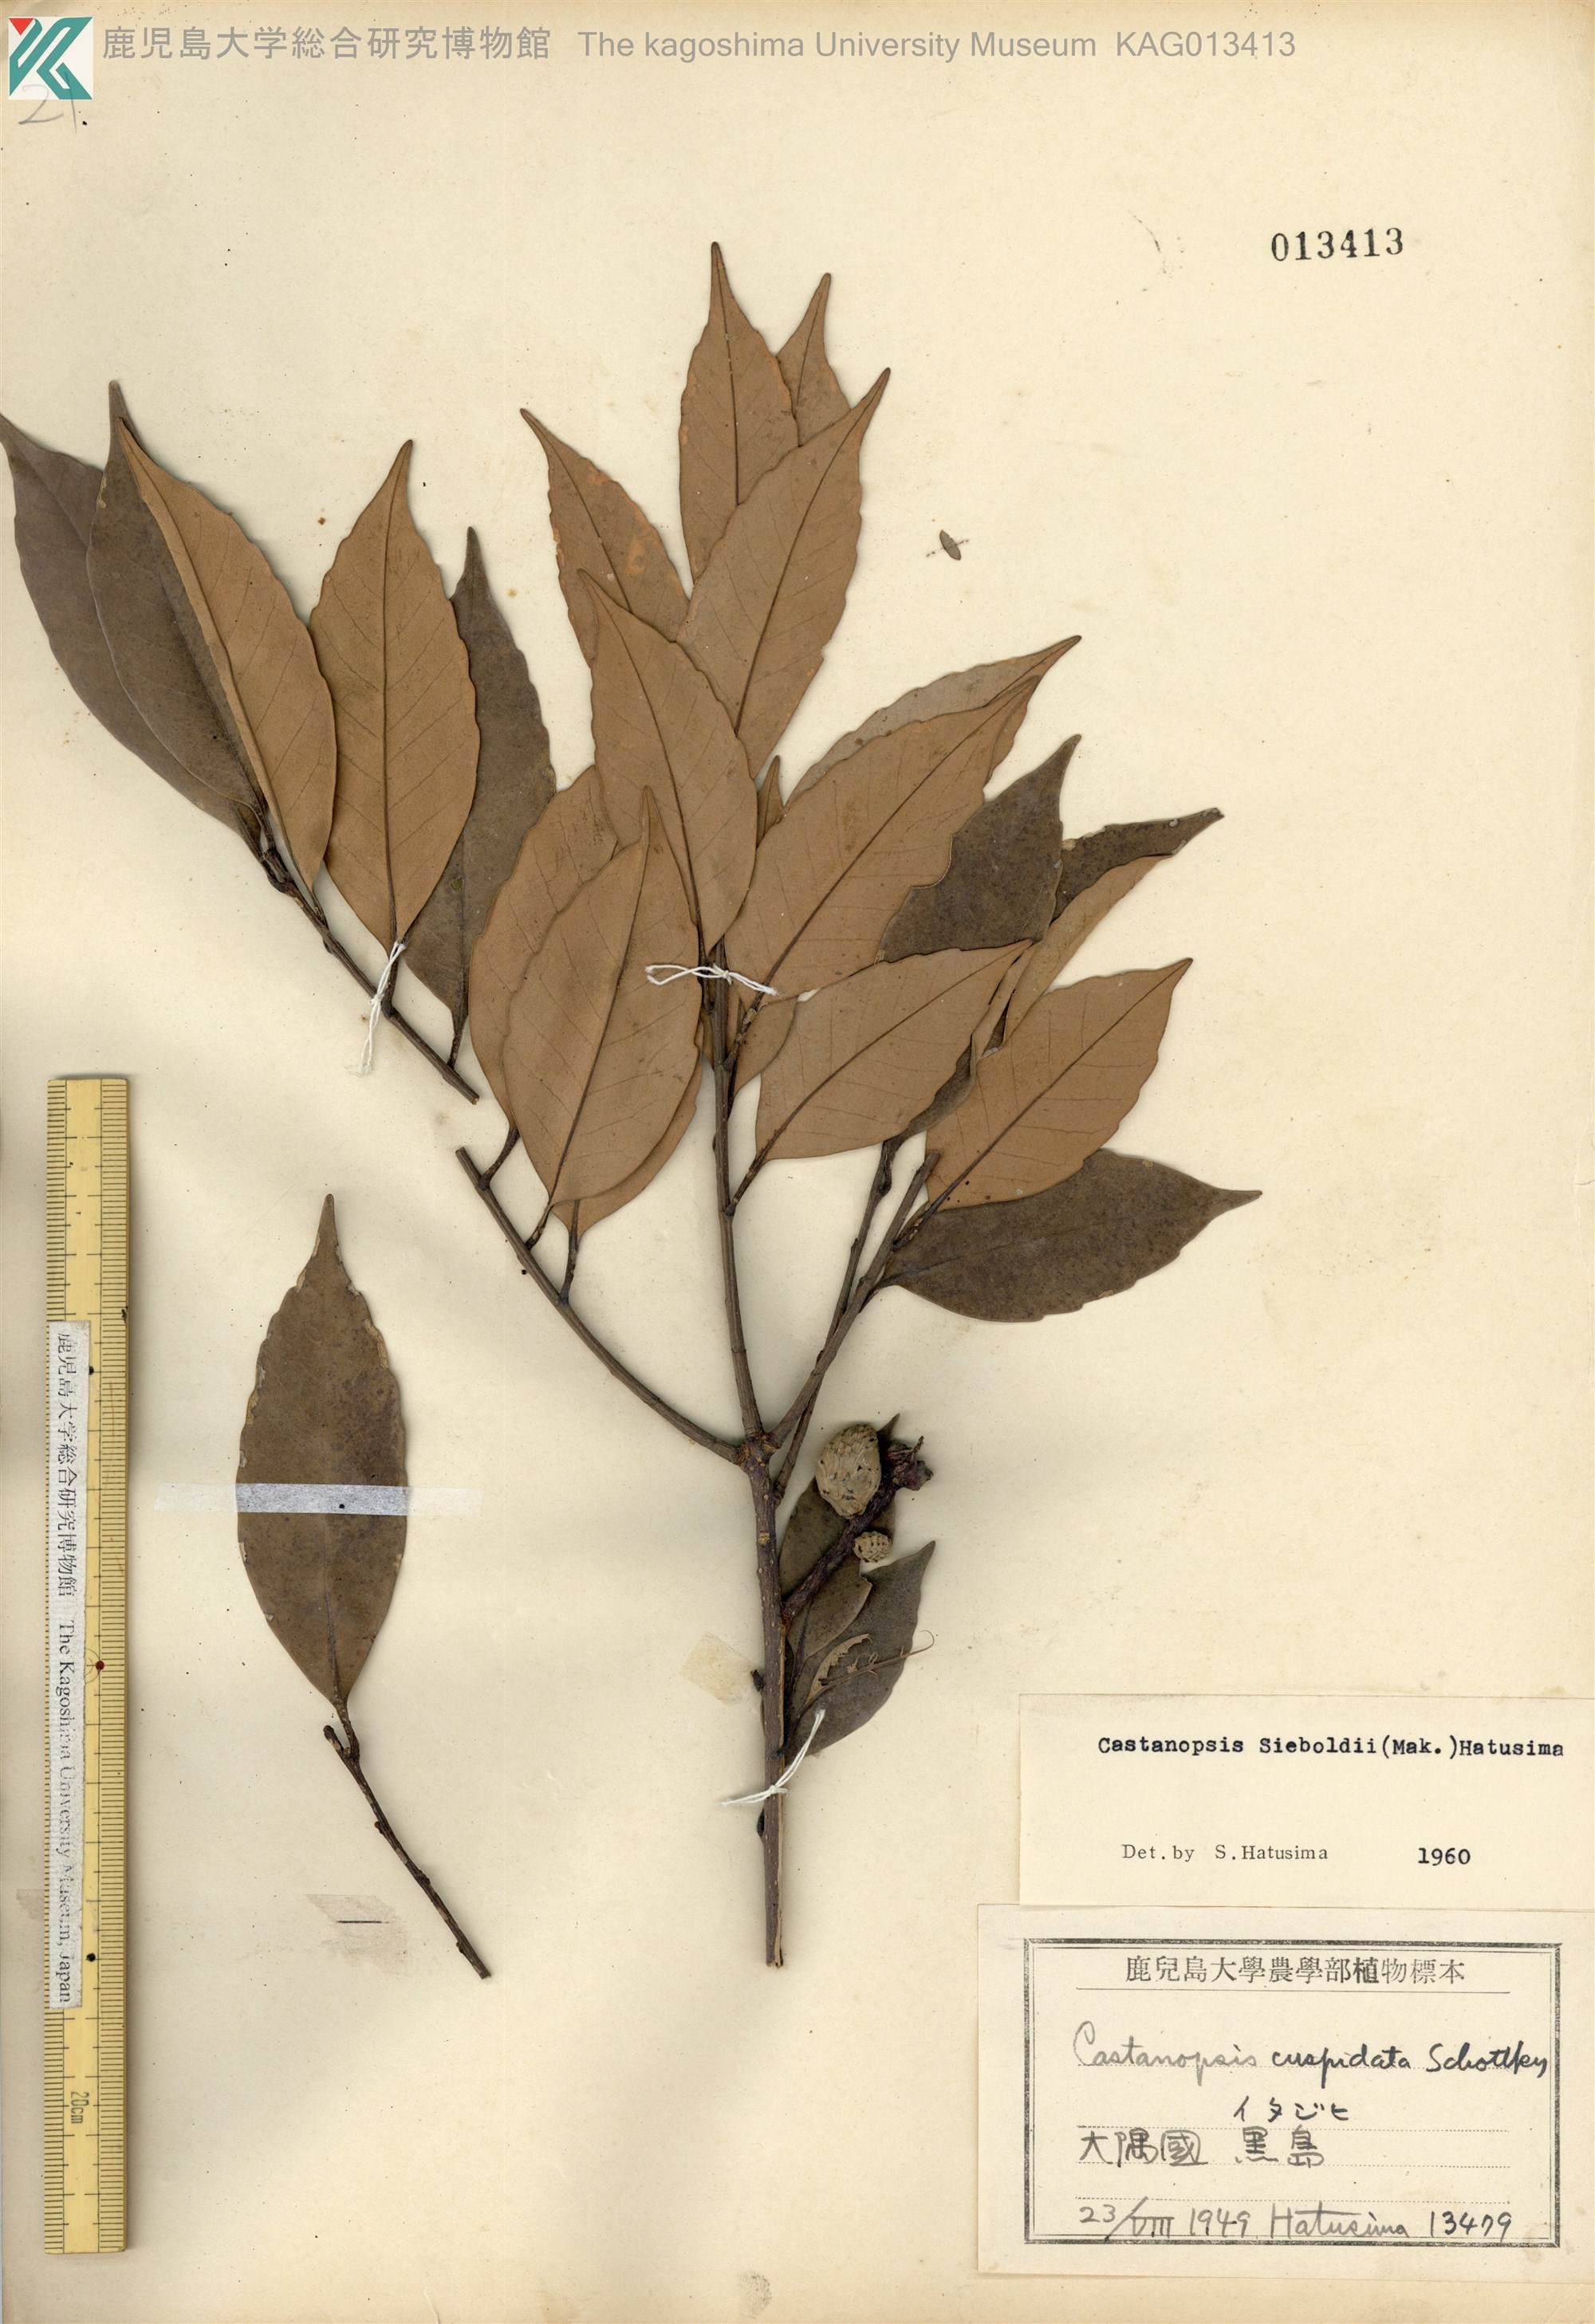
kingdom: Plantae
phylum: Tracheophyta
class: Magnoliopsida
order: Fagales
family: Fagaceae
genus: Castanopsis
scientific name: Castanopsis sieboldii
